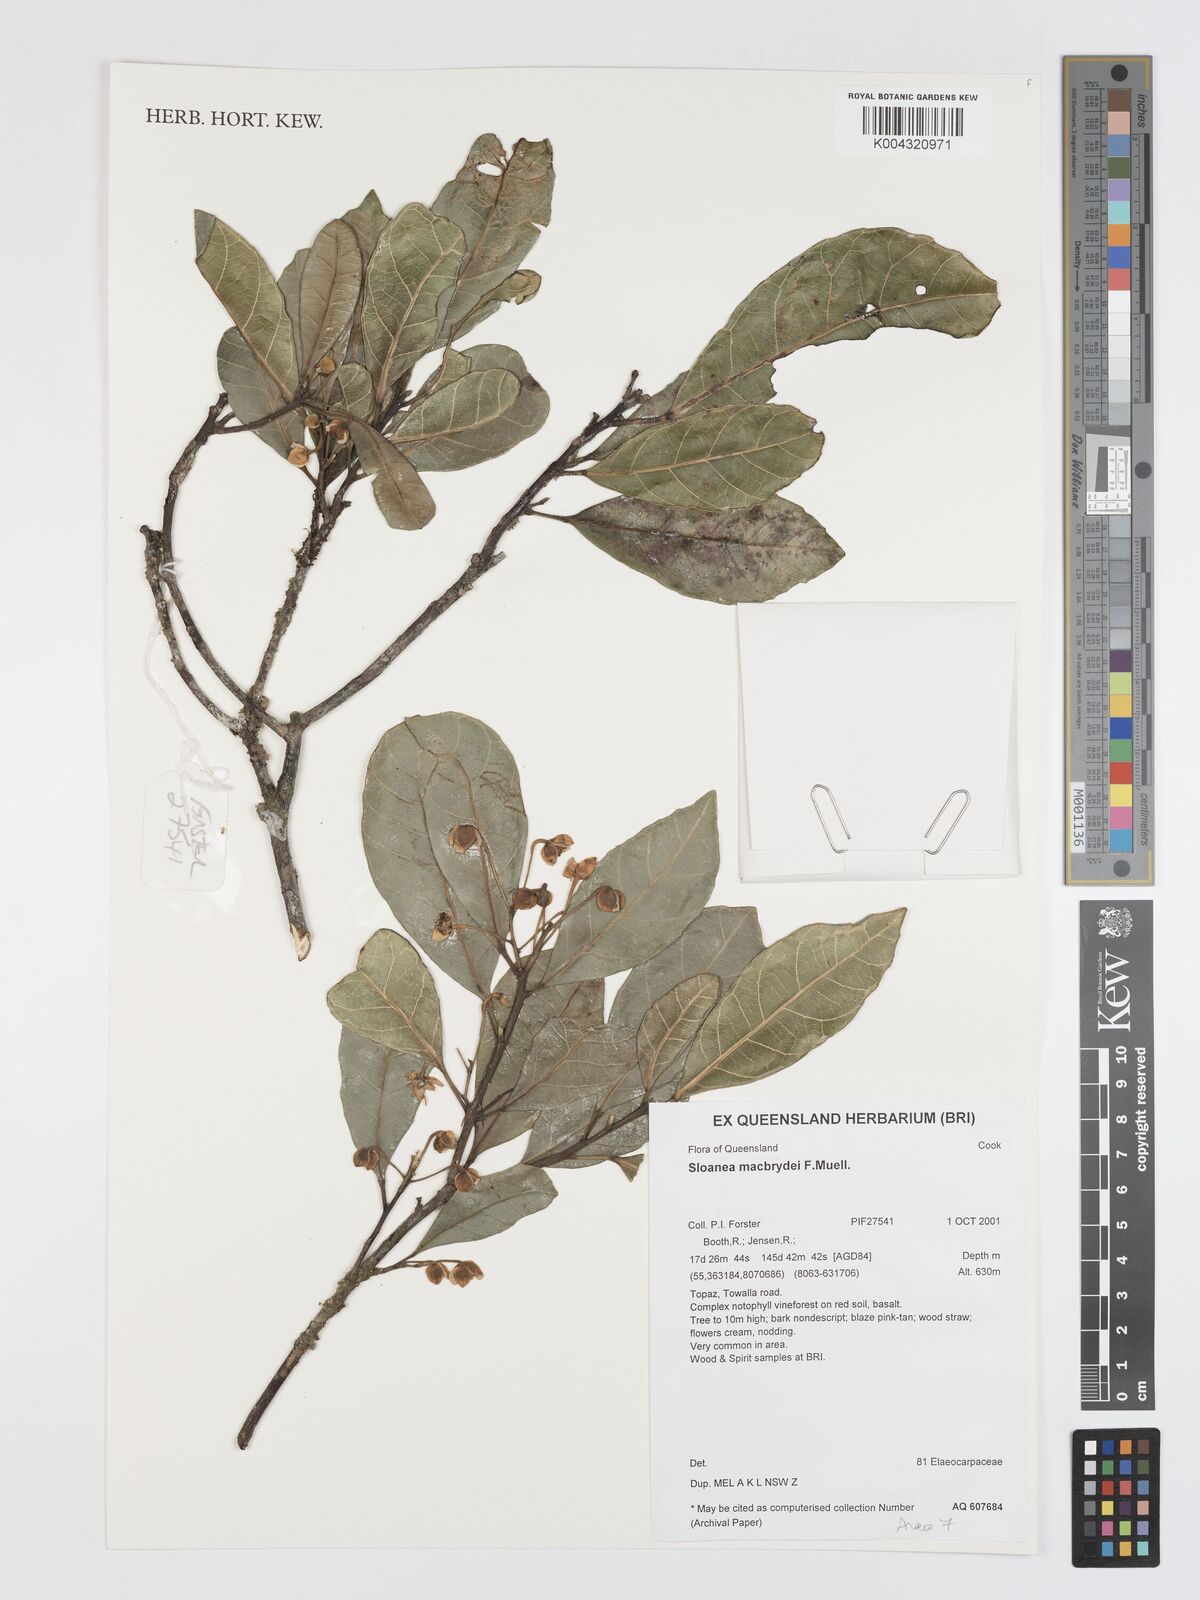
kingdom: Plantae
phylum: Tracheophyta
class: Magnoliopsida
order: Oxalidales
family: Elaeocarpaceae
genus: Sloanea
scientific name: Sloanea macbrydei
